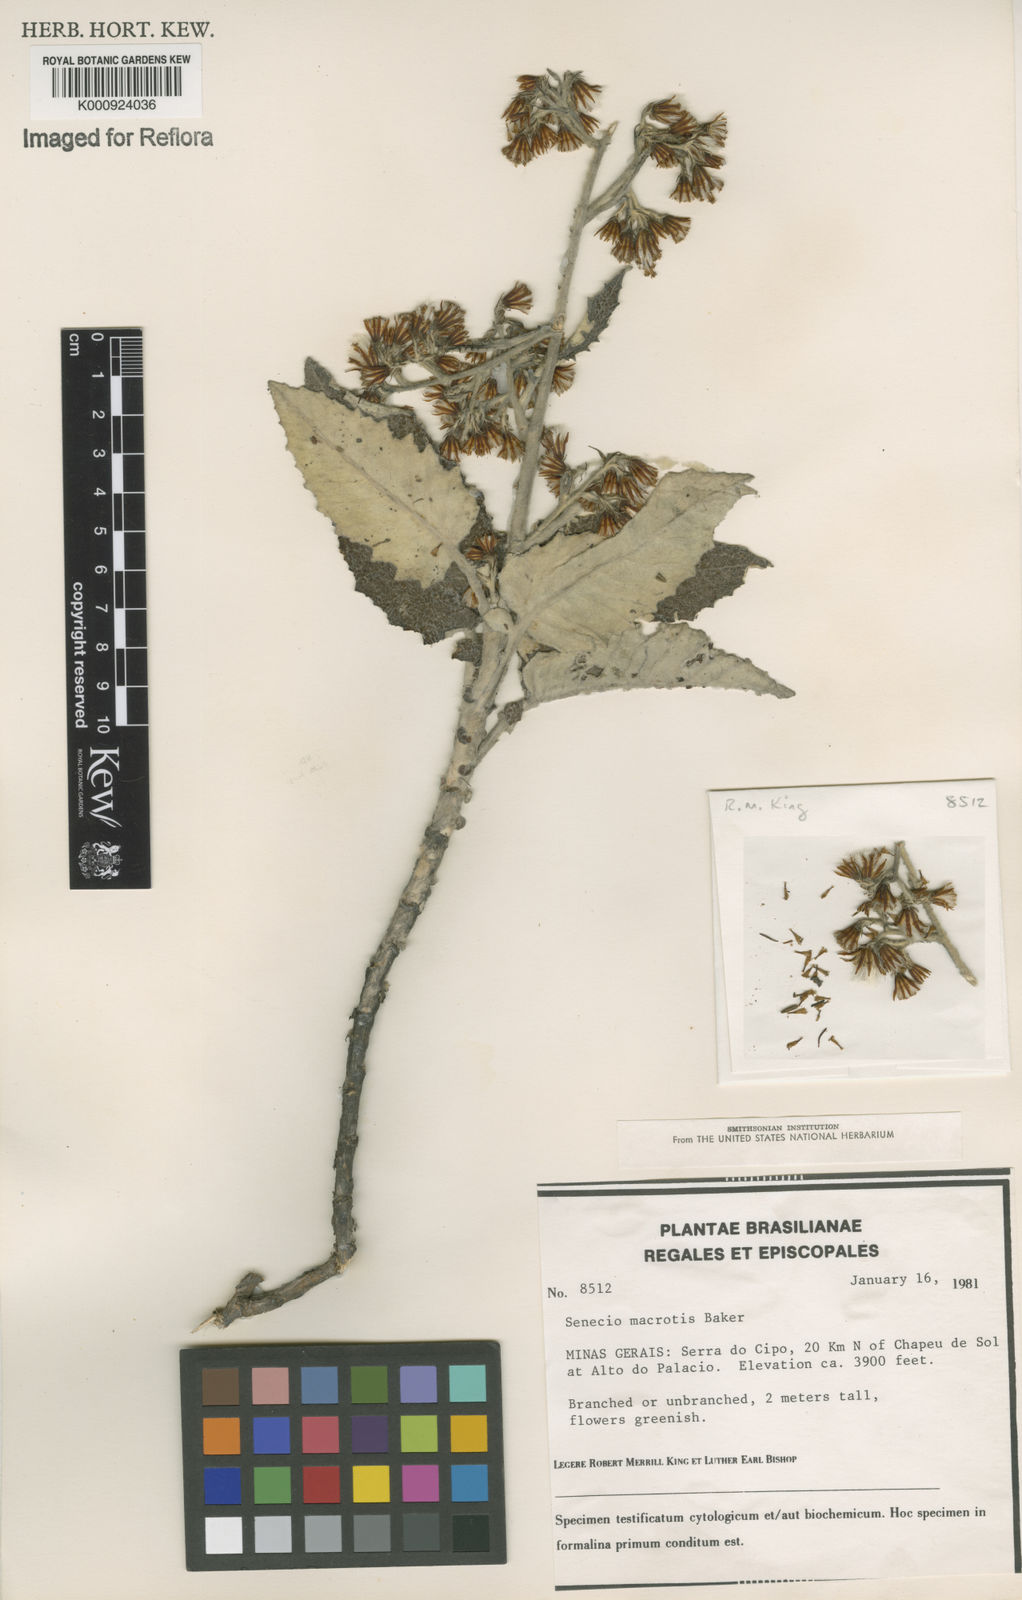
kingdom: Plantae
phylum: Tracheophyta
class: Magnoliopsida
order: Asterales
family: Asteraceae
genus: Senecio
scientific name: Senecio macrotis
